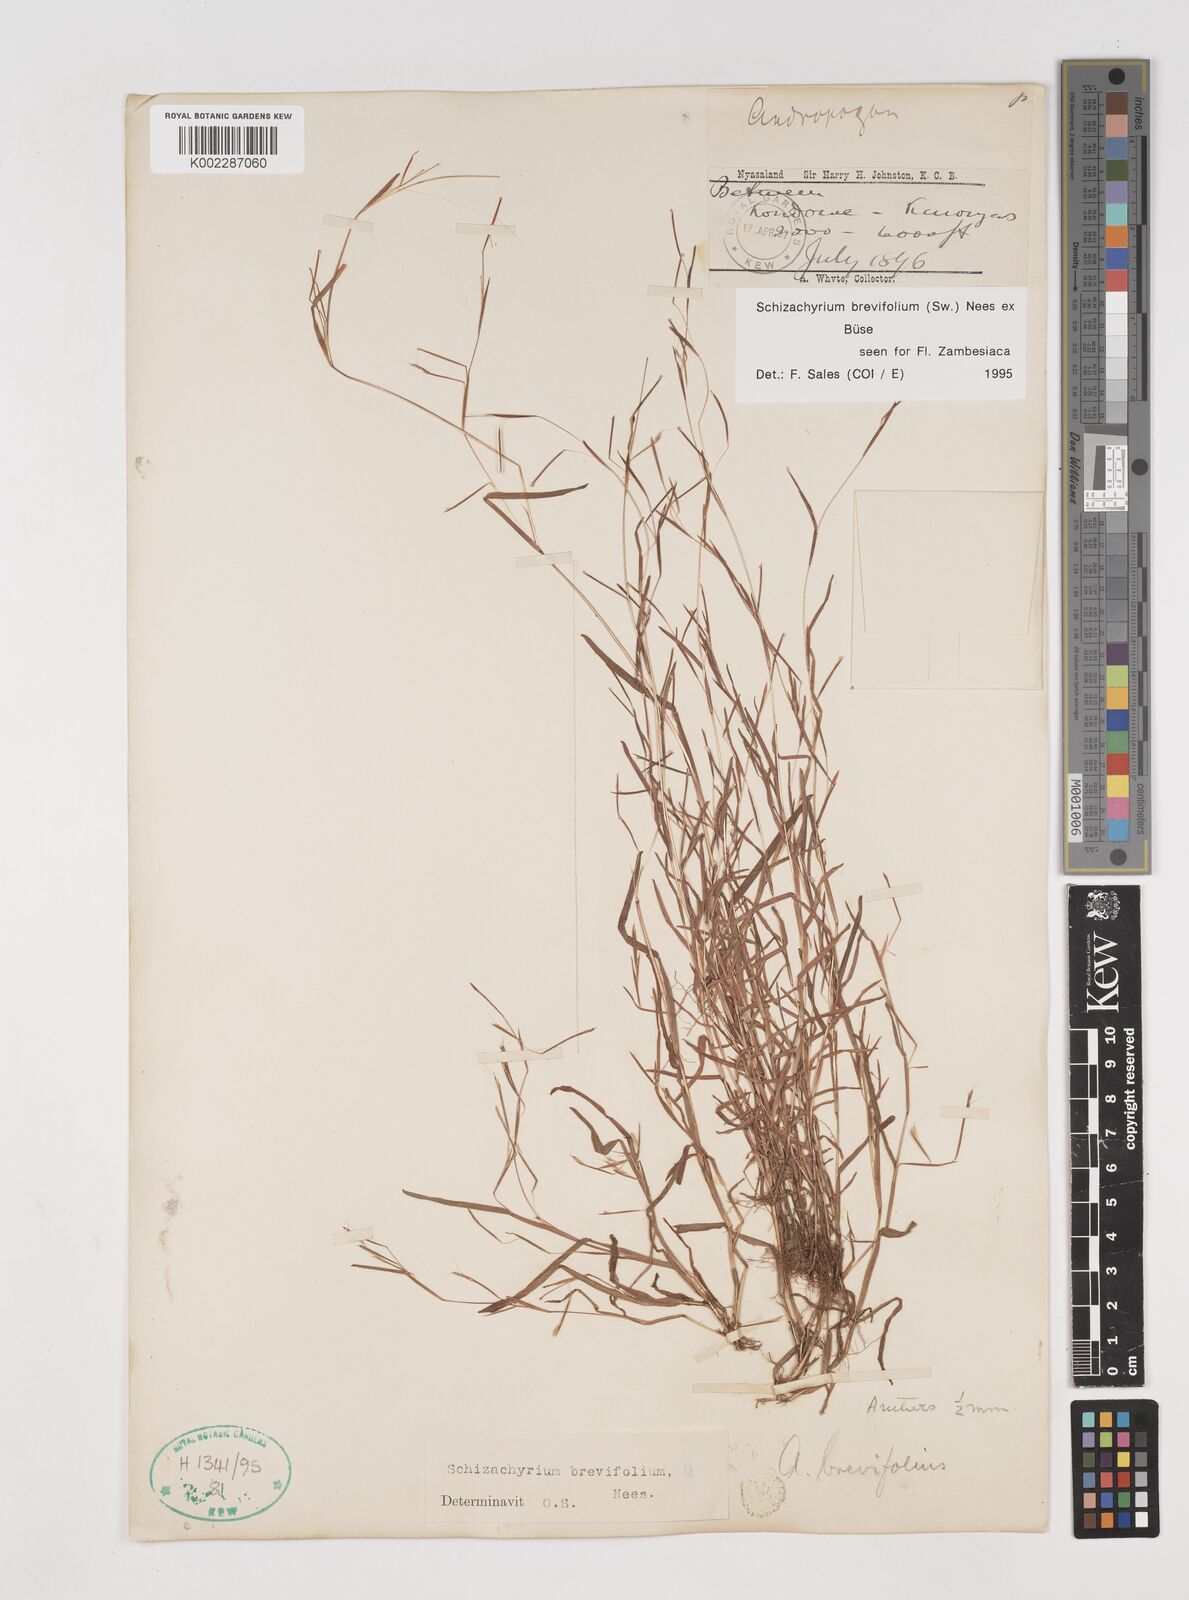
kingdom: Plantae
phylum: Tracheophyta
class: Liliopsida
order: Poales
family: Poaceae
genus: Schizachyrium
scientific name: Schizachyrium brevifolium
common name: Serillo dulce
